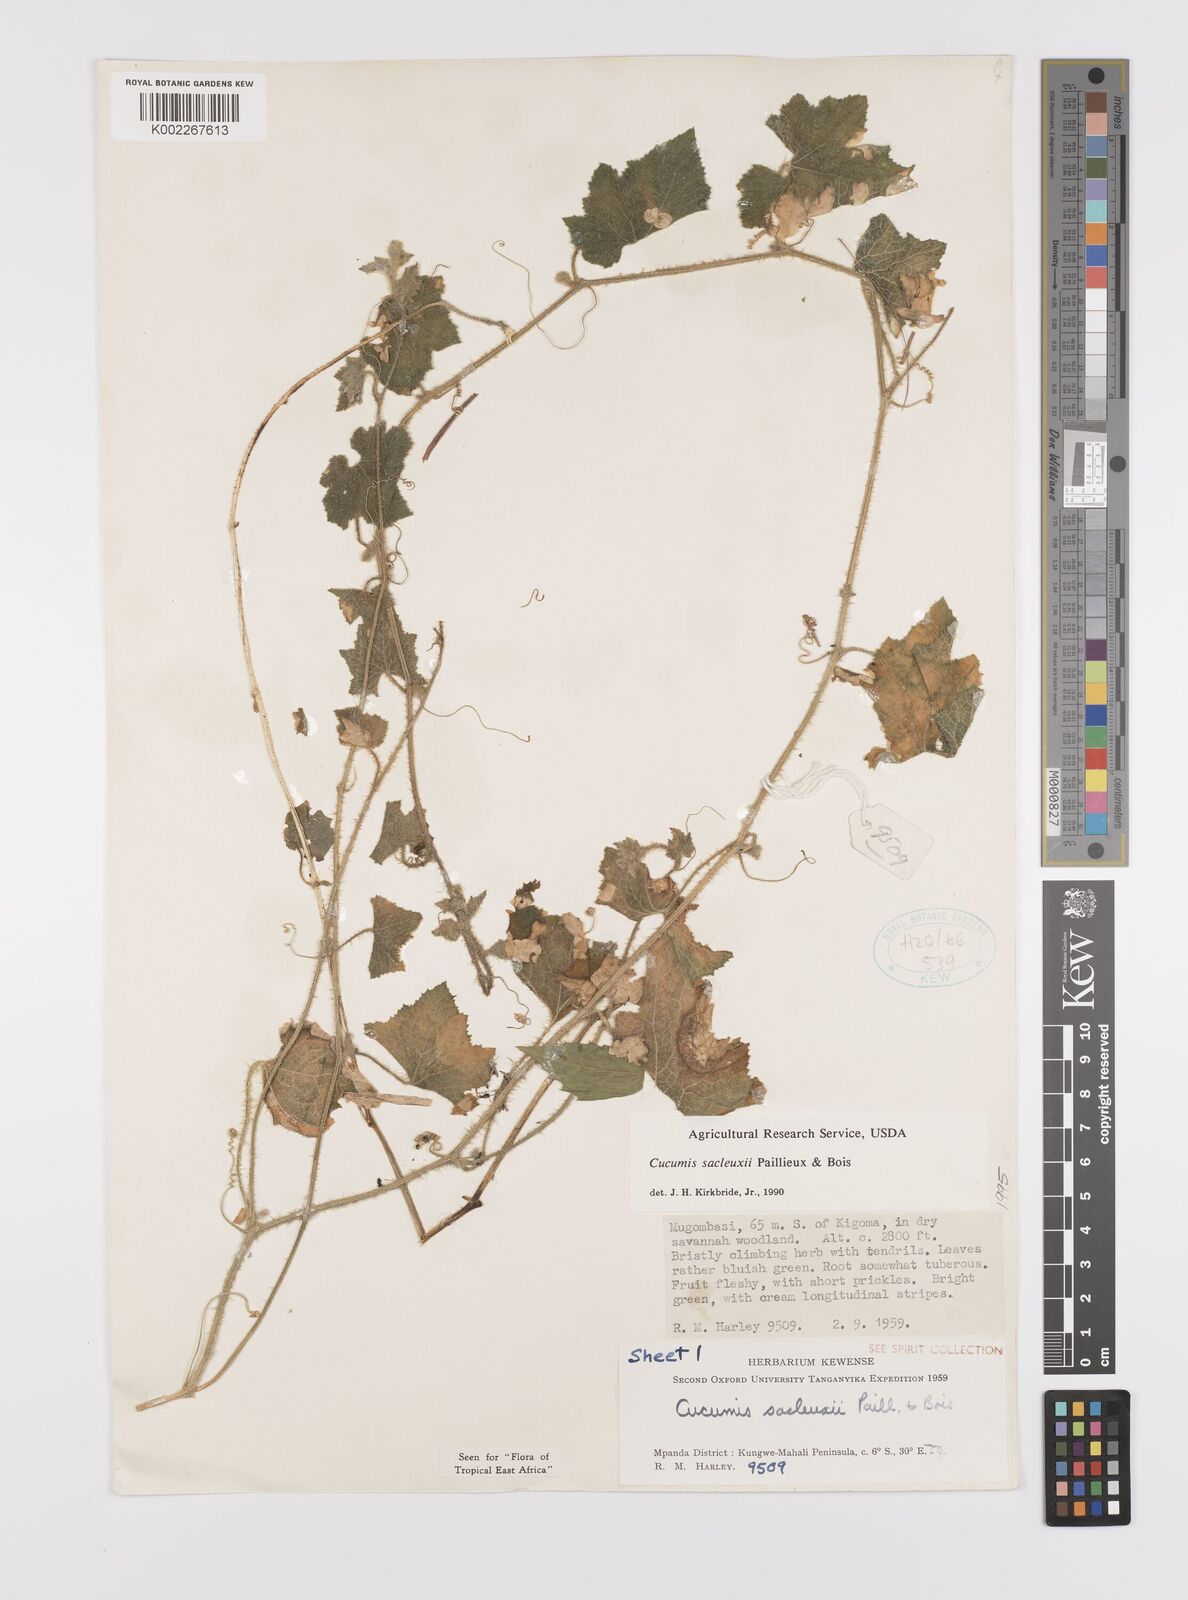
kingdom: Plantae
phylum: Tracheophyta
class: Magnoliopsida
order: Cucurbitales
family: Cucurbitaceae
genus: Cucumis
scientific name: Cucumis sacleuxii
